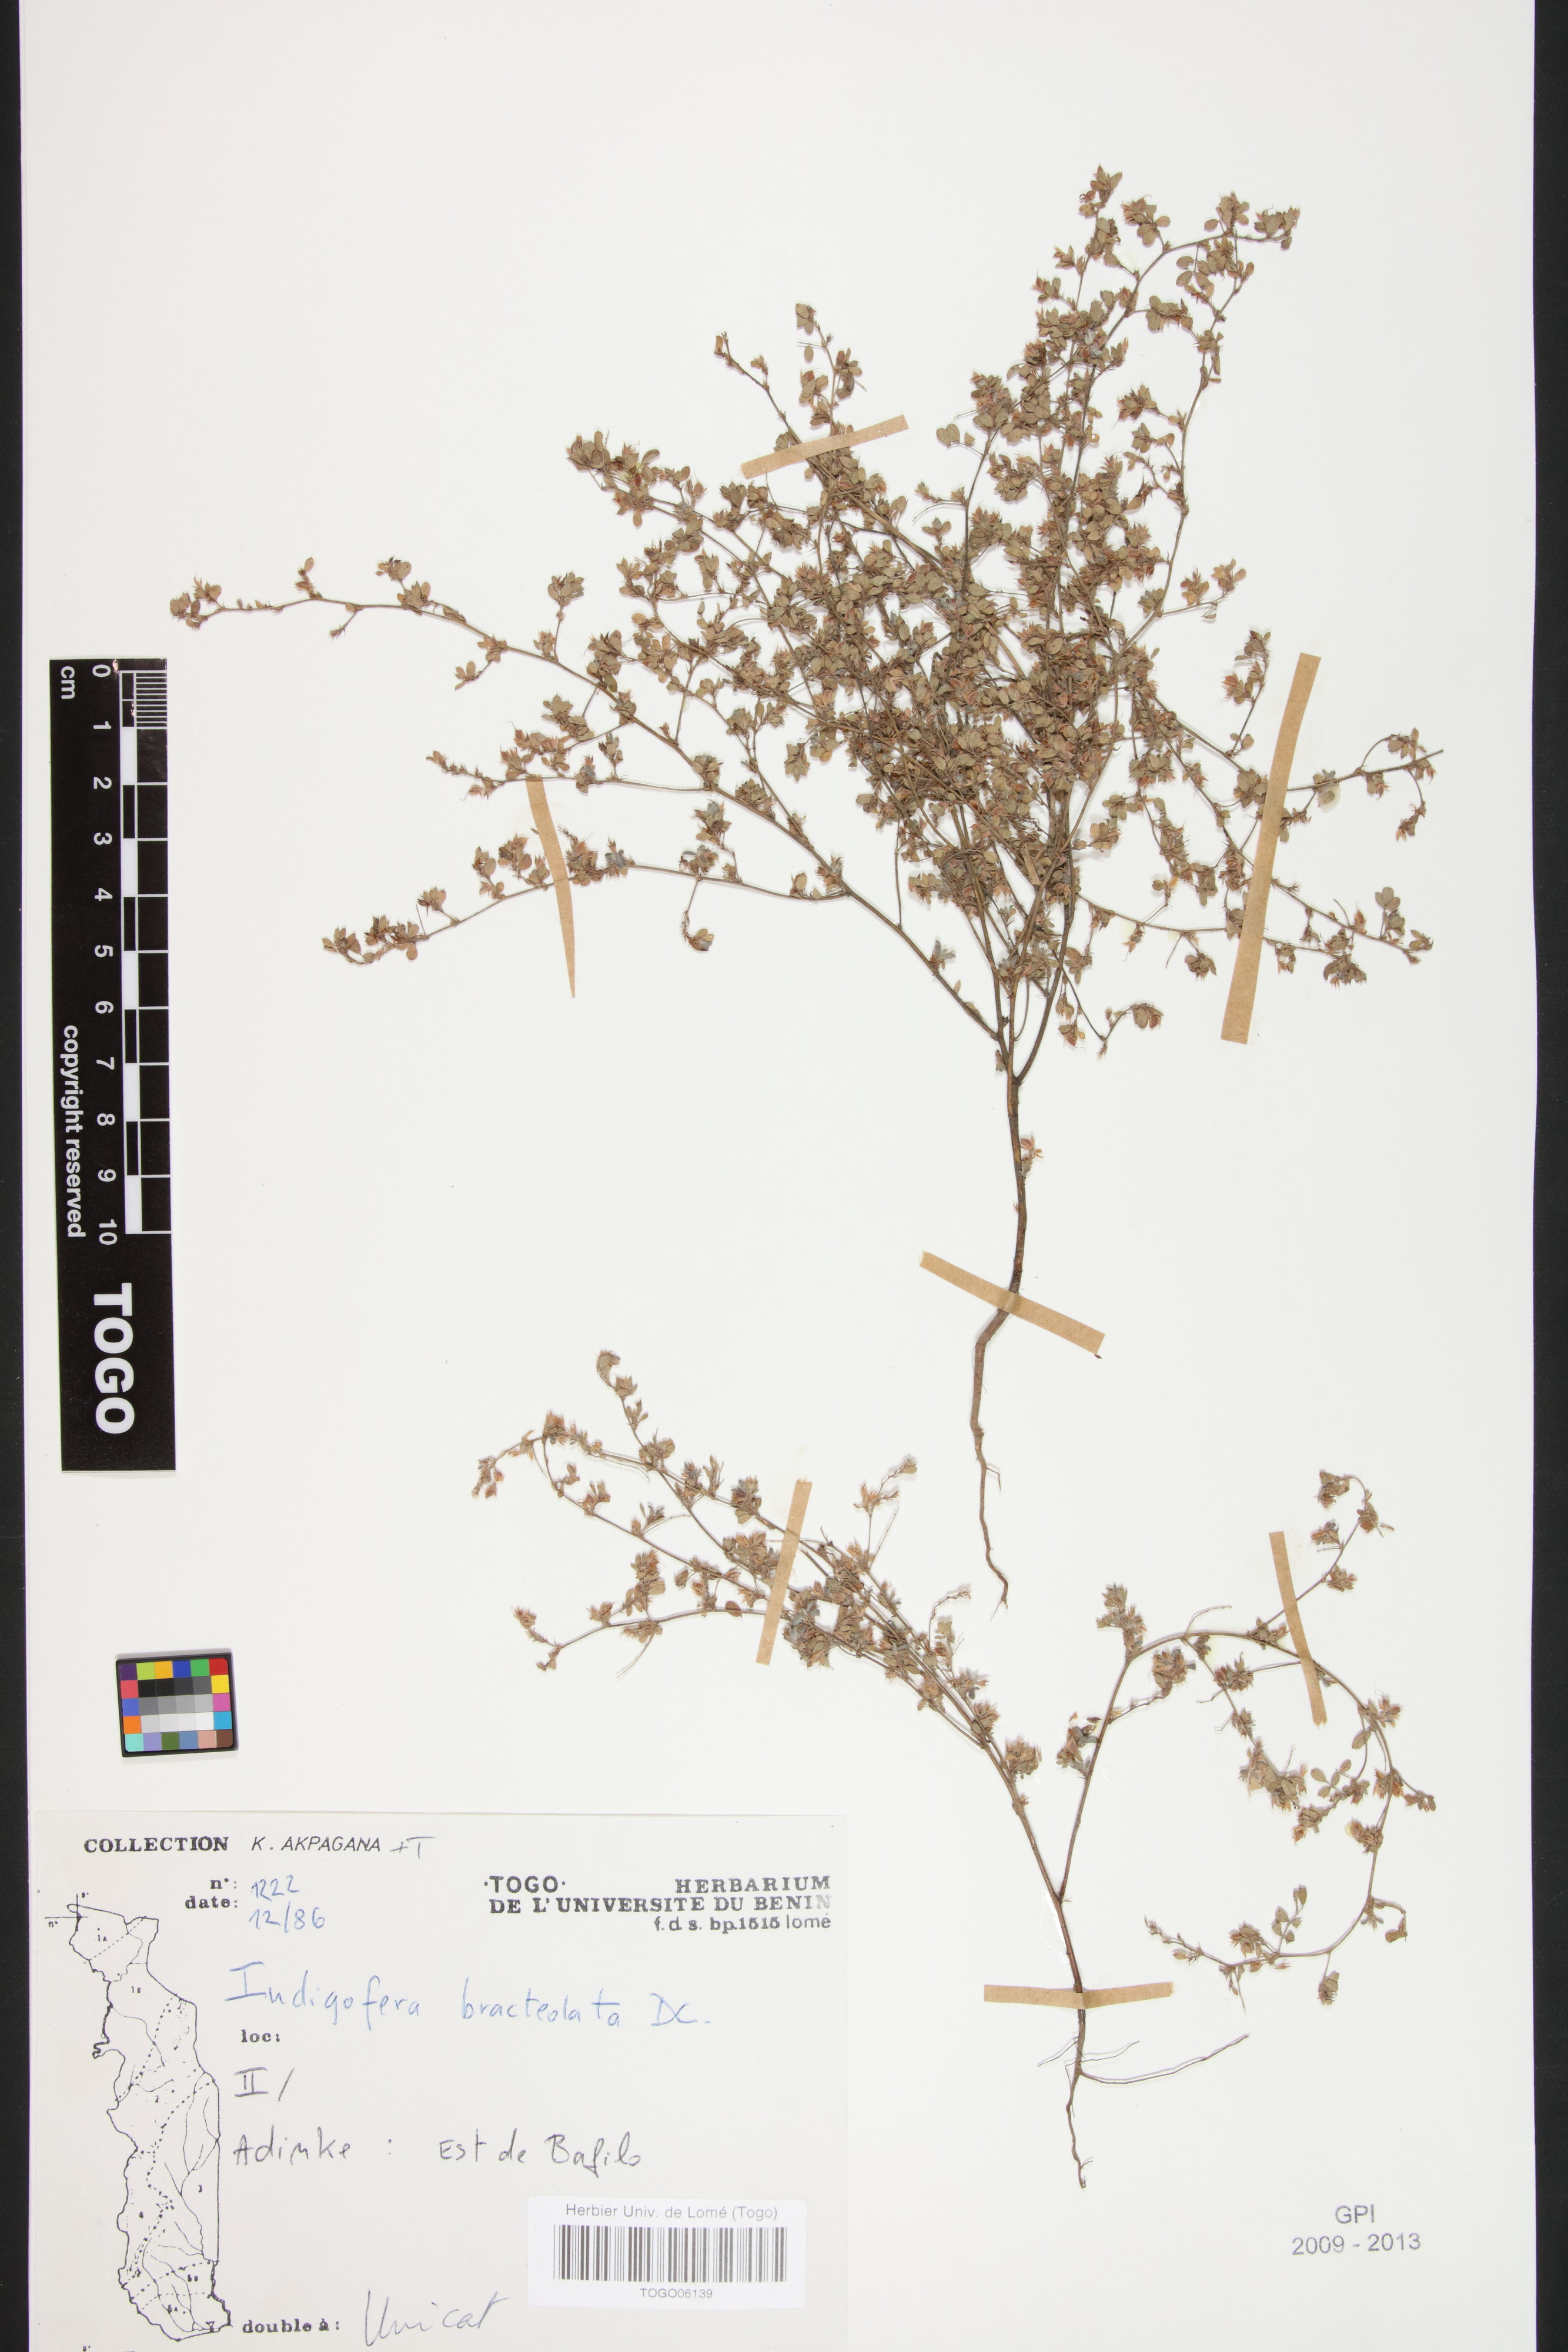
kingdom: Plantae
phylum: Tracheophyta
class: Magnoliopsida
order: Fabales
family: Fabaceae
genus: Indigofera
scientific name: Indigofera bracteolata
